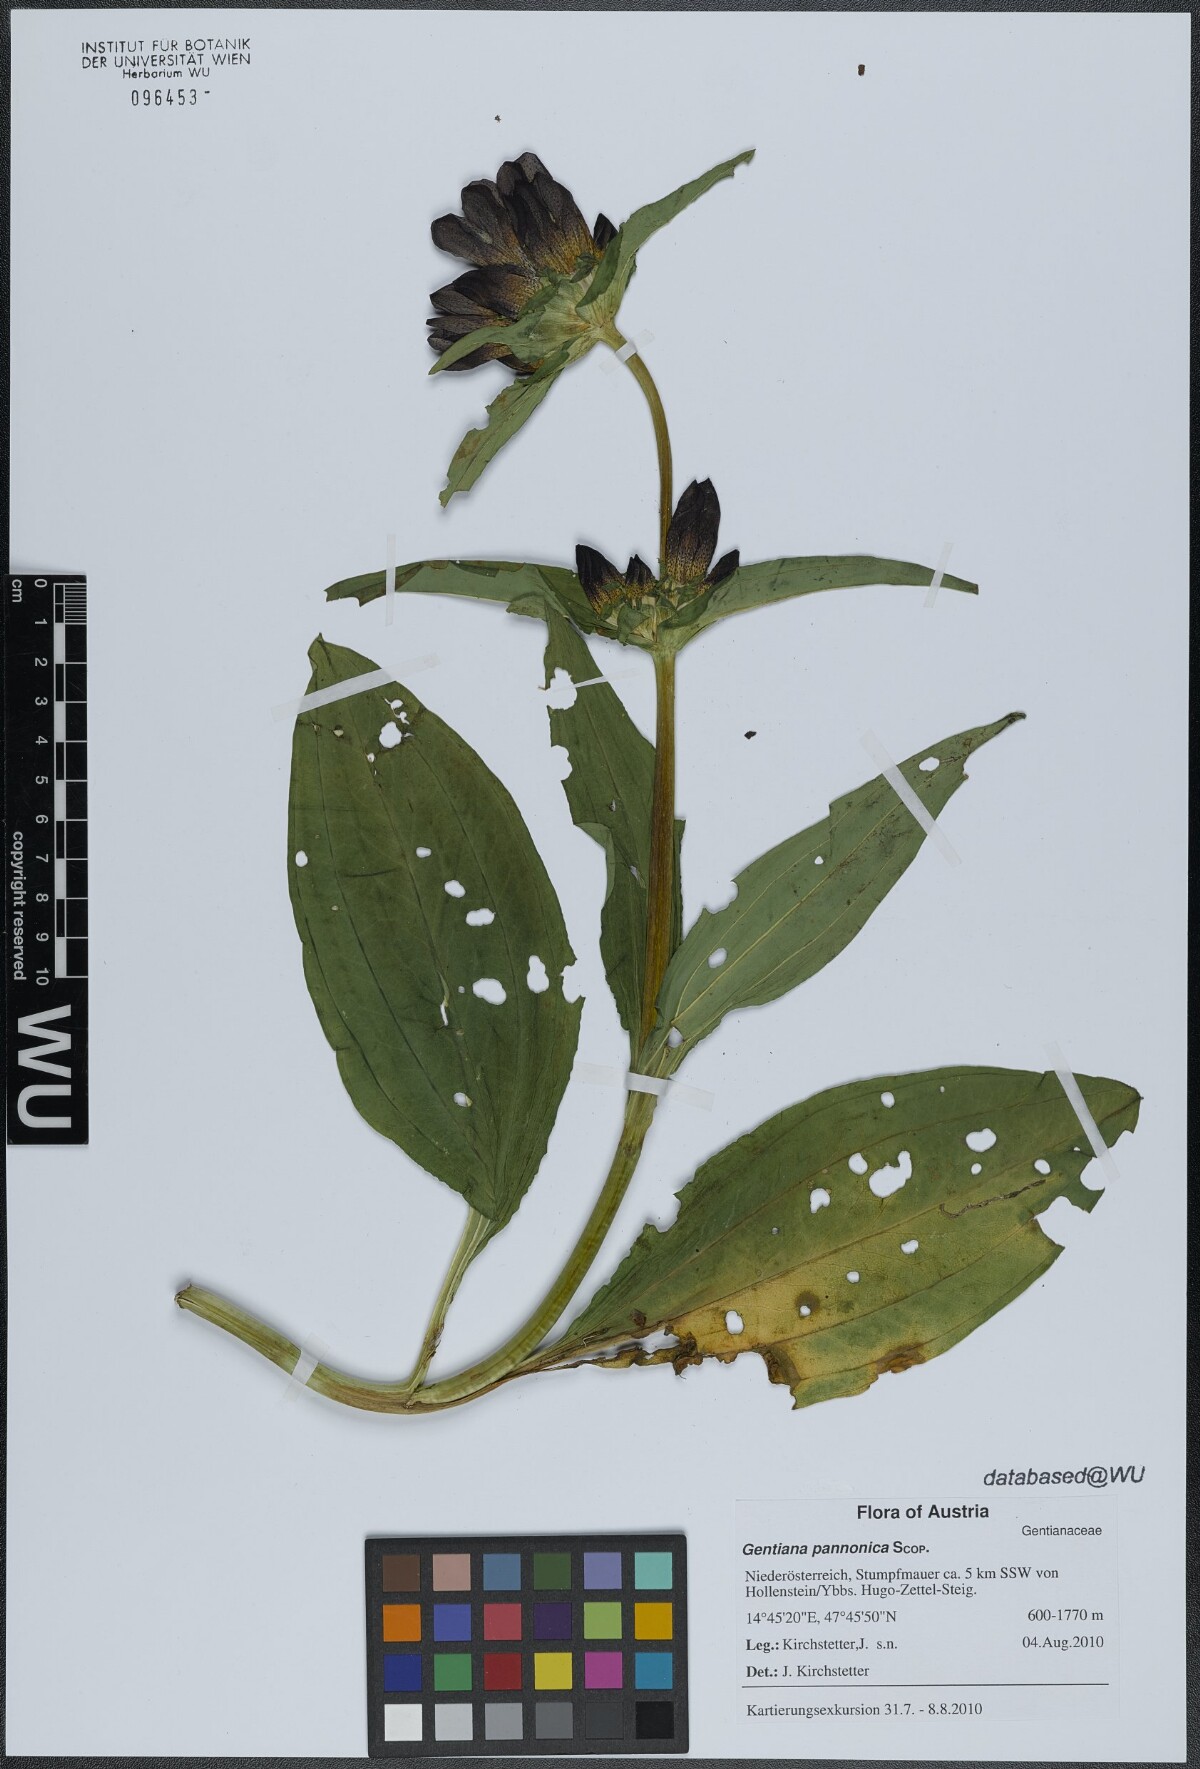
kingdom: Plantae
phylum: Tracheophyta
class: Magnoliopsida
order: Gentianales
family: Gentianaceae
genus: Gentiana
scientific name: Gentiana pannonica
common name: Hungarian gentian
